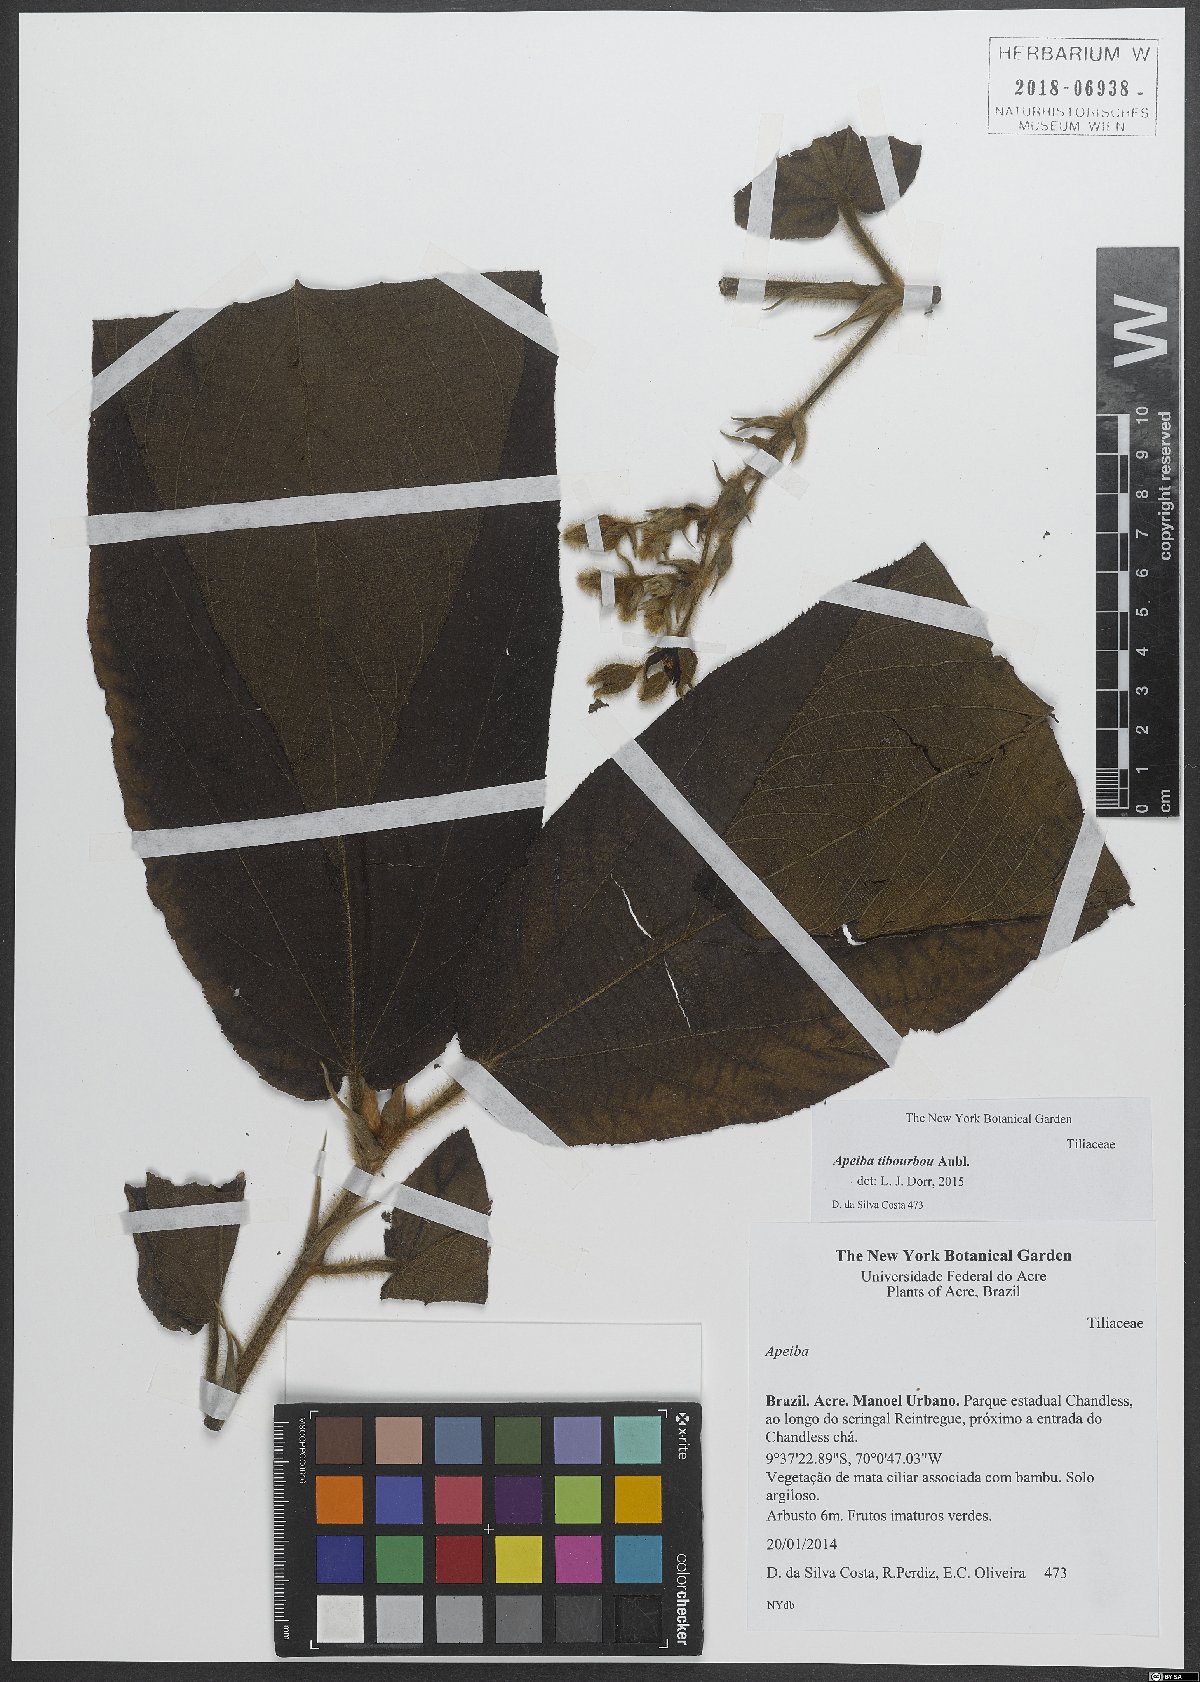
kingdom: Plantae
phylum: Tracheophyta
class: Magnoliopsida
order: Malvales
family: Malvaceae
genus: Apeiba
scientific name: Apeiba tibourbou
